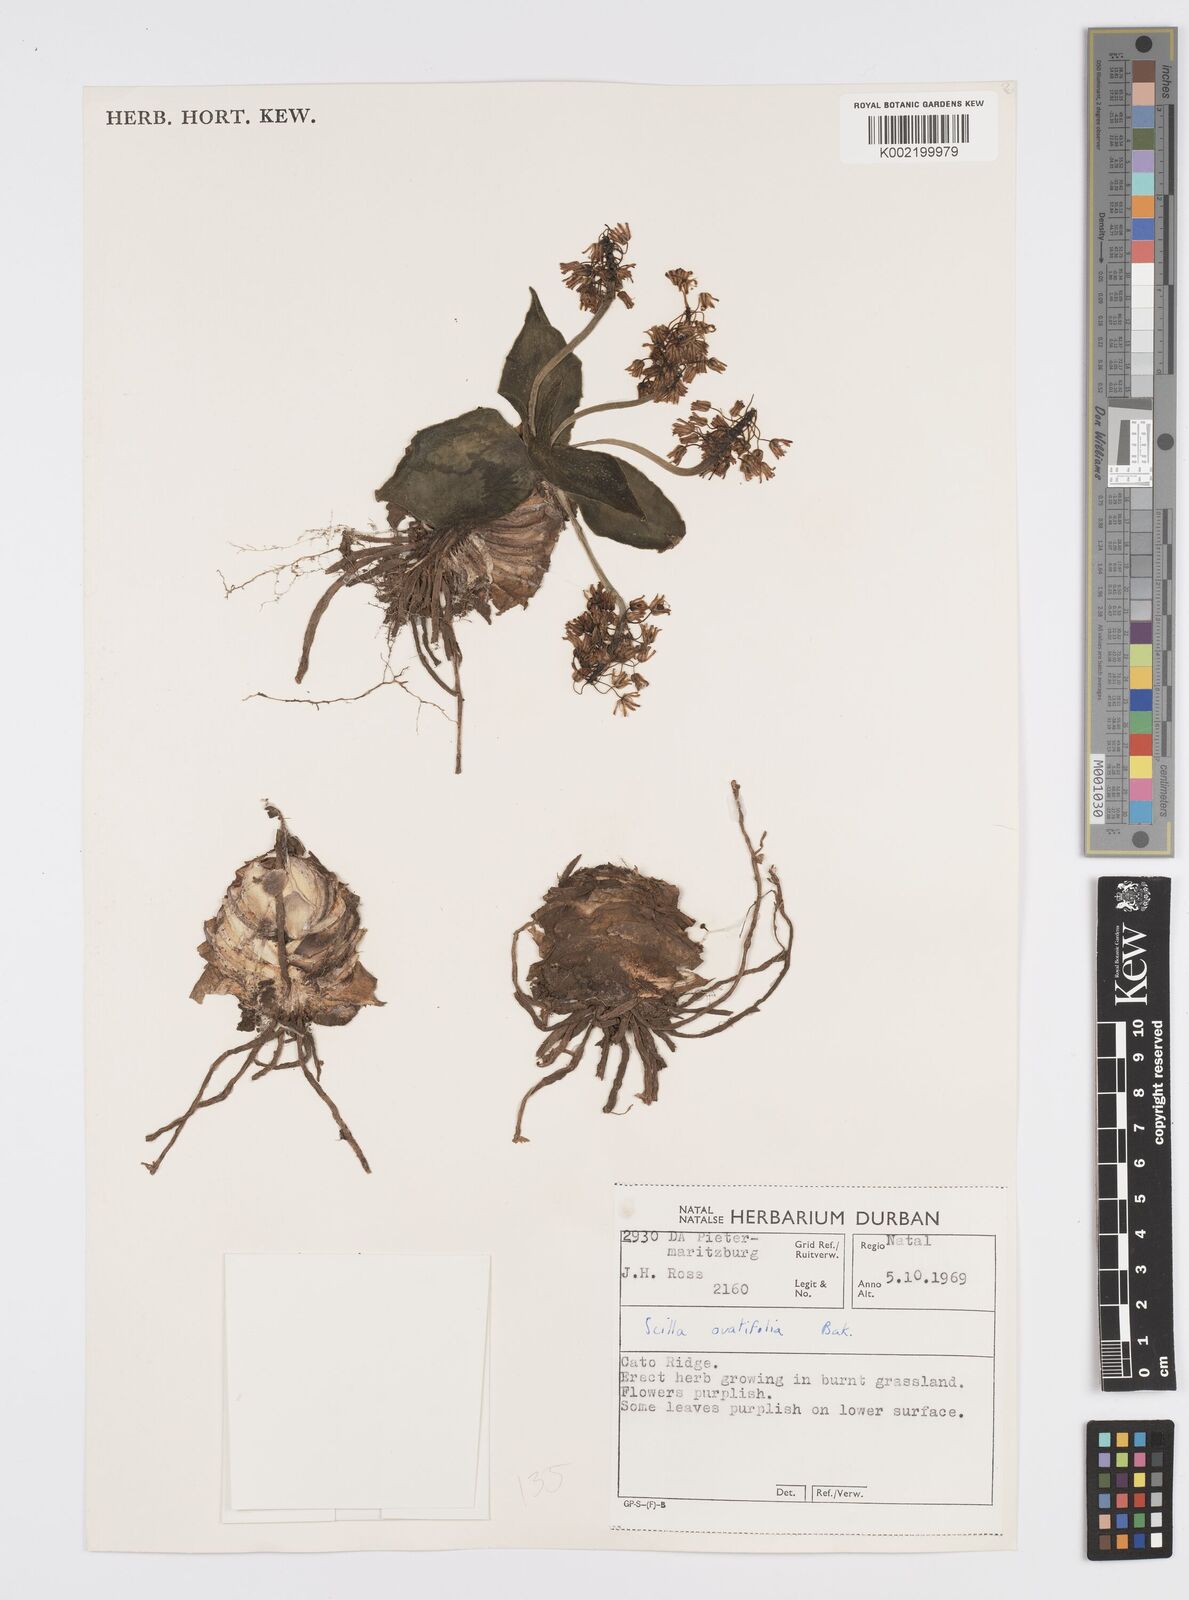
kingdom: Plantae
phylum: Tracheophyta
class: Liliopsida
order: Asparagales
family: Asparagaceae
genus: Ledebouria
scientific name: Ledebouria ovatifolia
